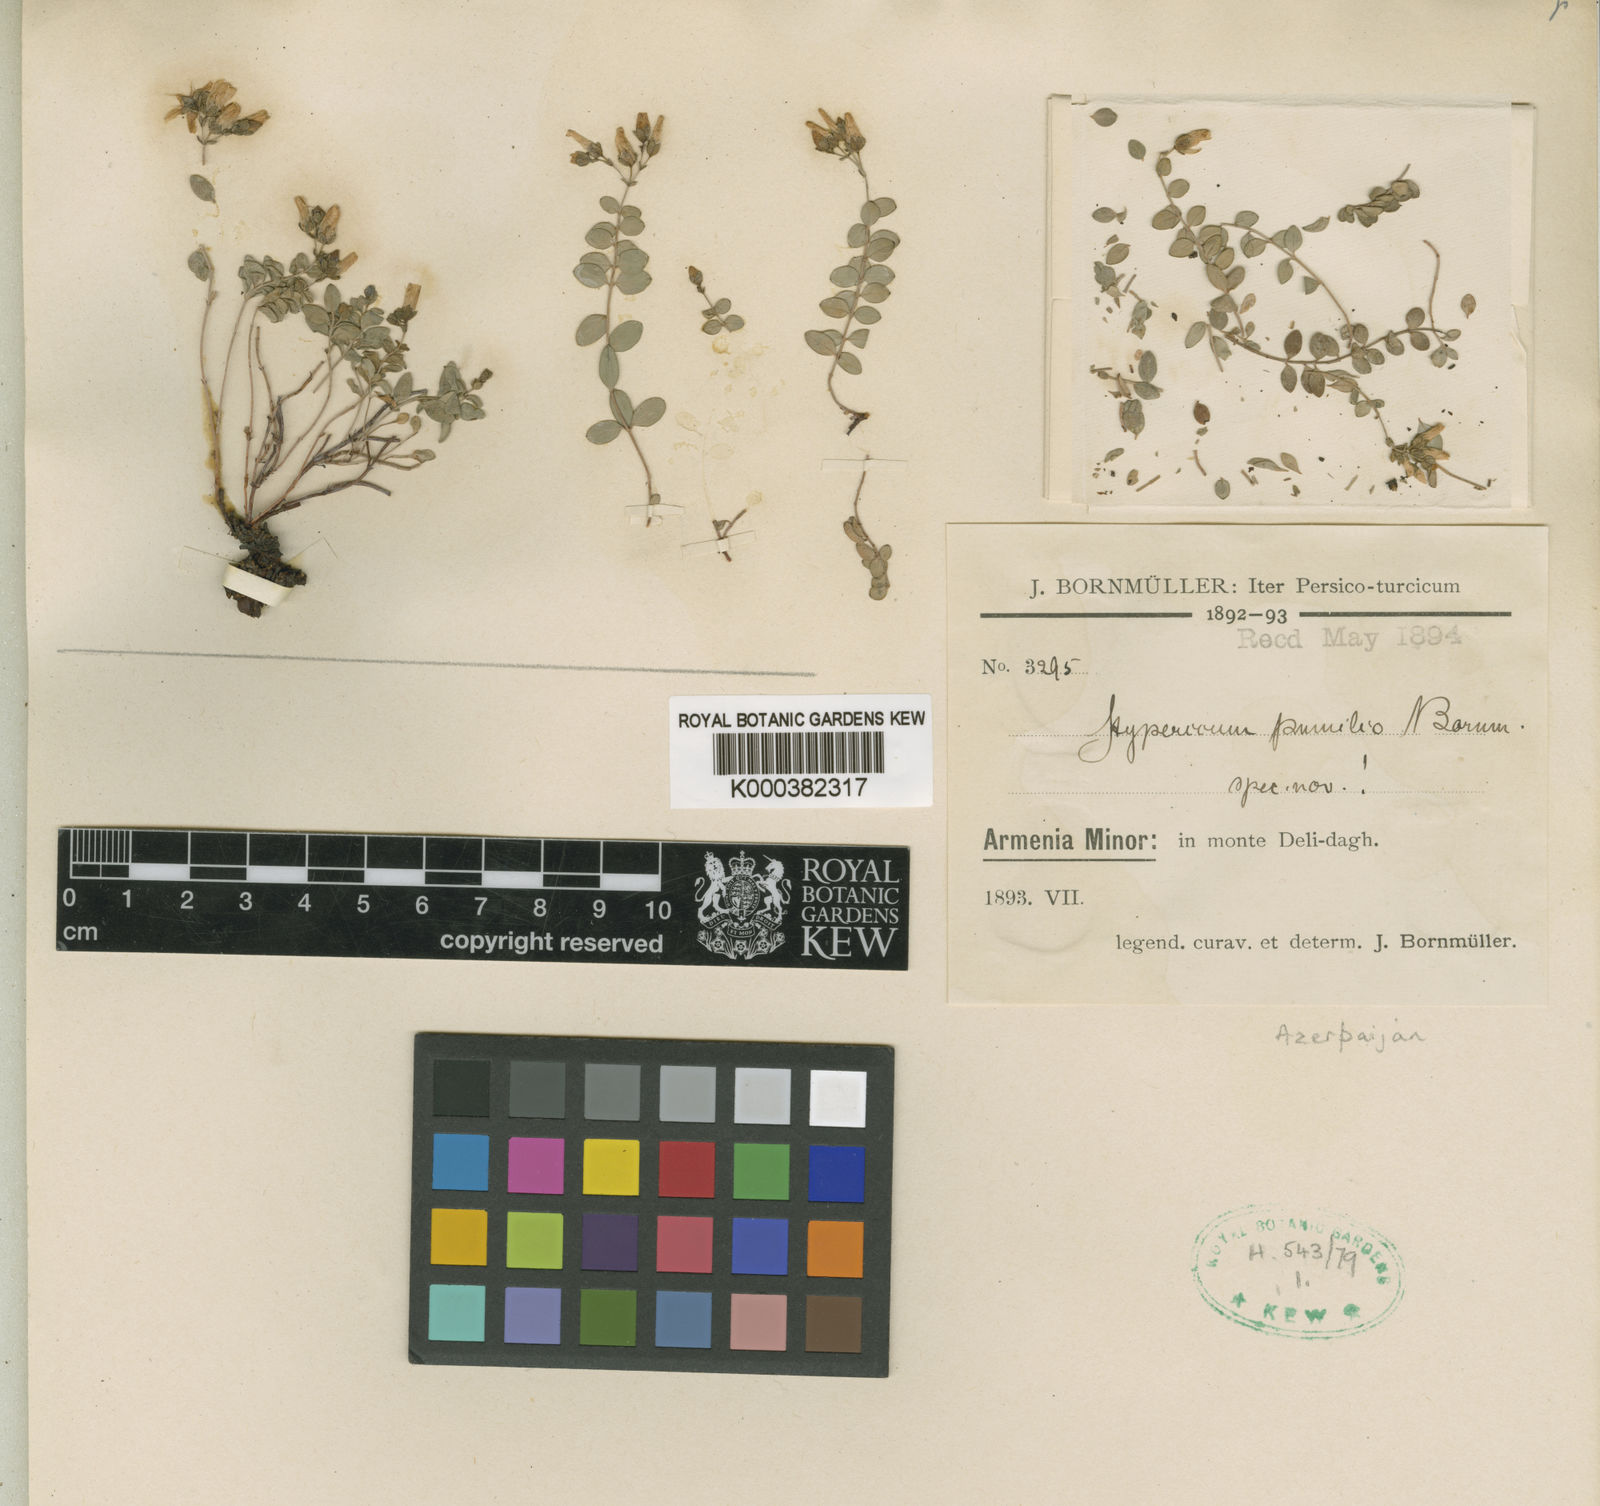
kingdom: Plantae
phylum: Tracheophyta
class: Magnoliopsida
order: Malpighiales
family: Hypericaceae
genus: Hypericum
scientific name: Hypericum pumilio
